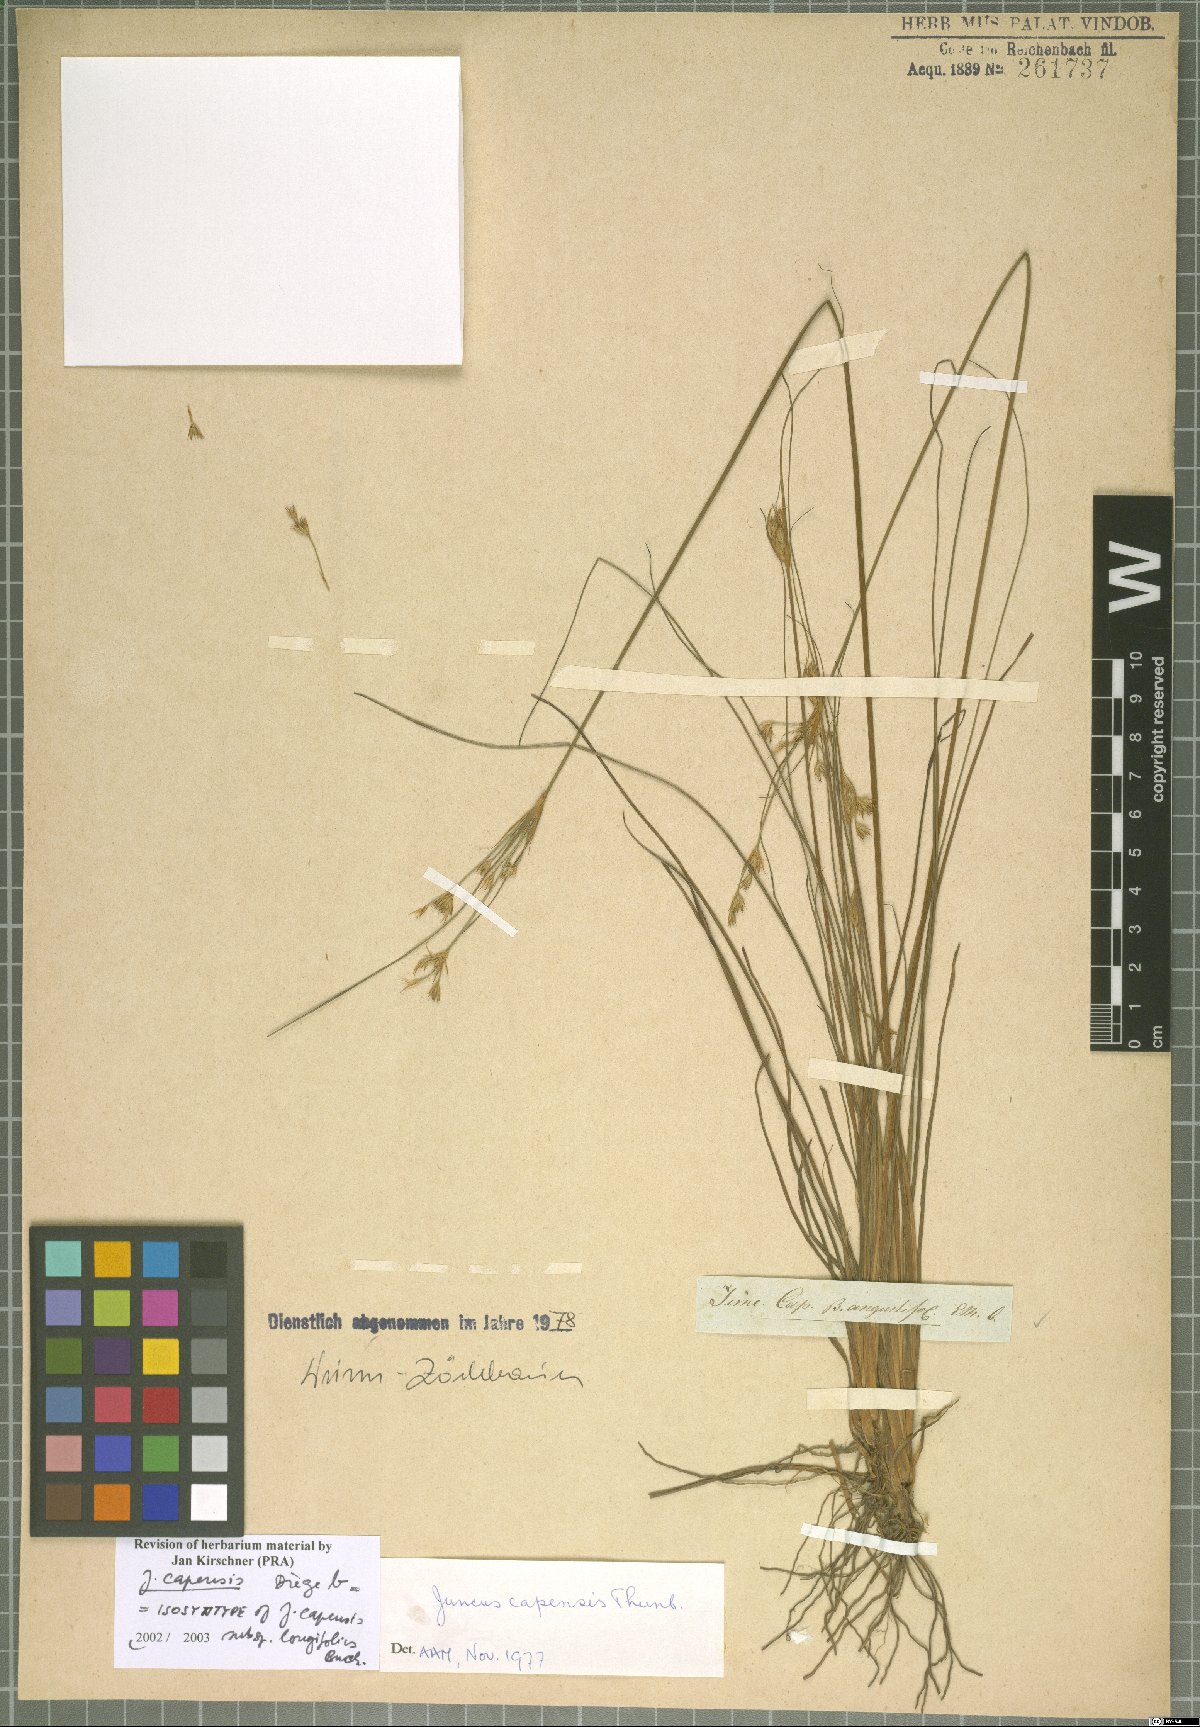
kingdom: Plantae
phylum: Tracheophyta
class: Liliopsida
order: Poales
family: Juncaceae
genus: Juncus
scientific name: Juncus capensis
